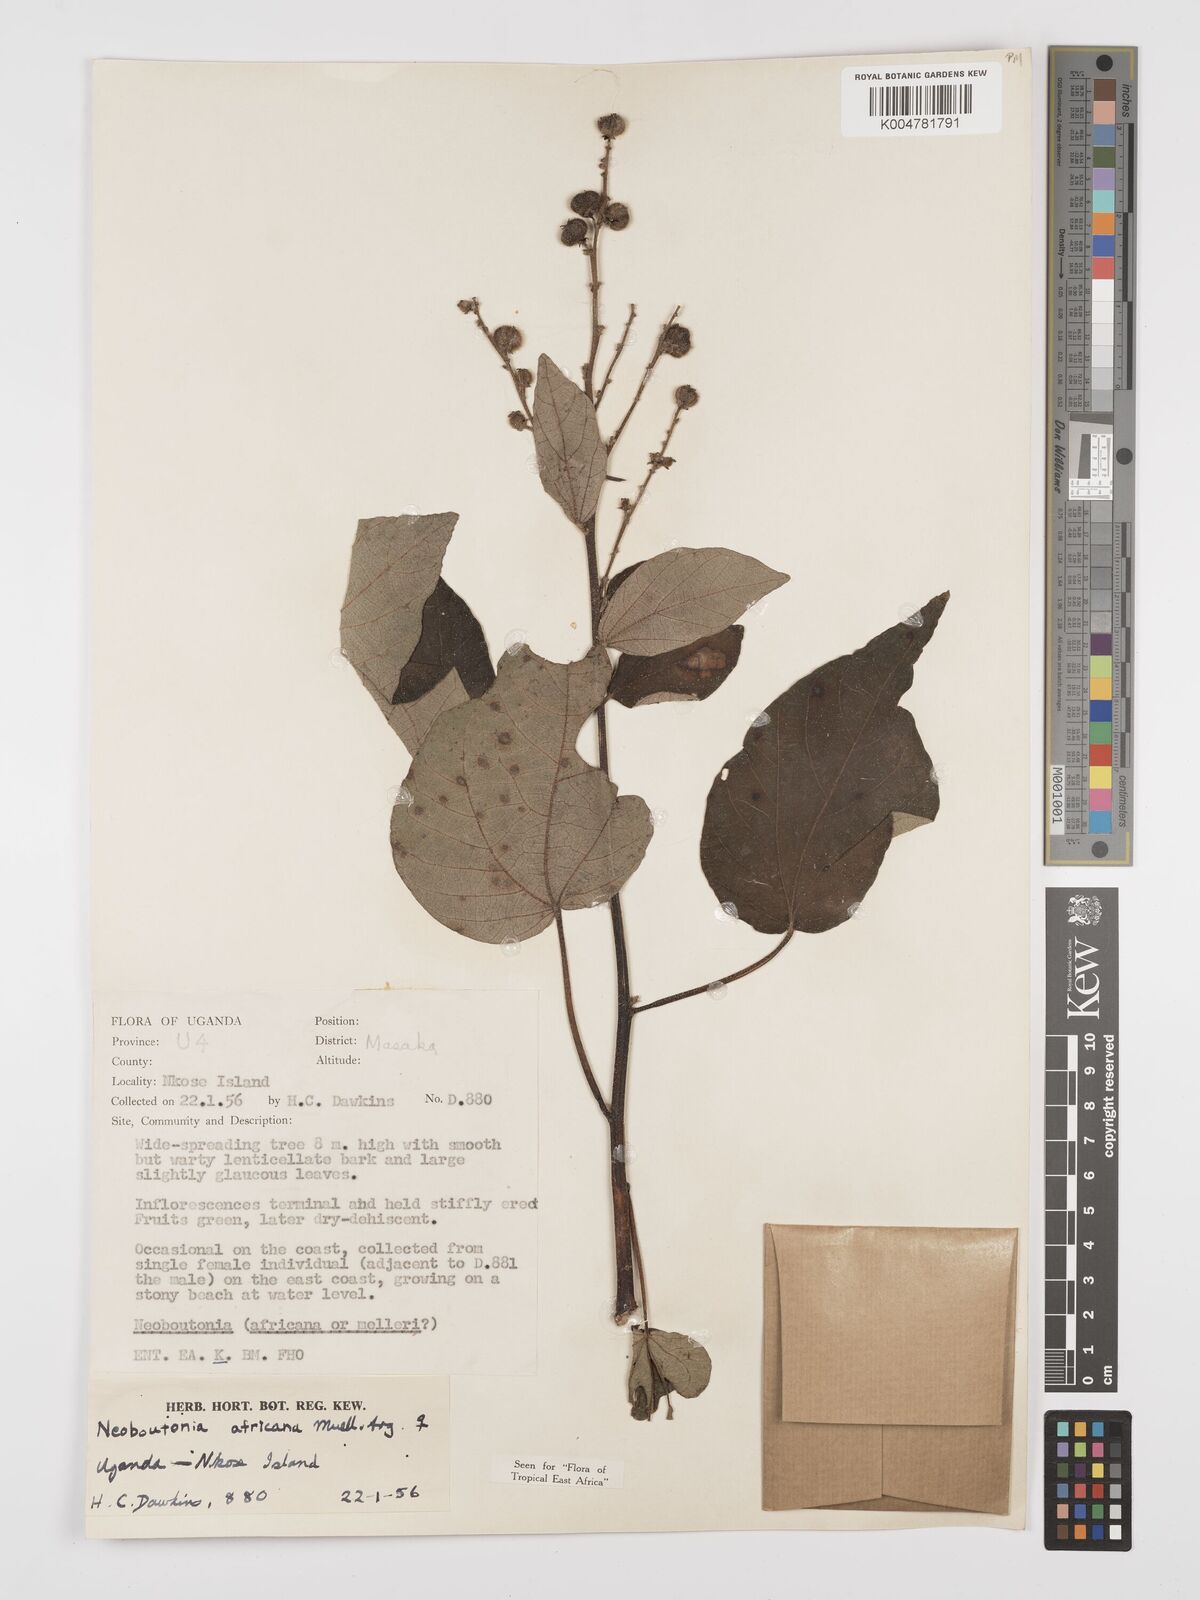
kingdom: Plantae
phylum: Tracheophyta
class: Magnoliopsida
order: Malpighiales
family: Euphorbiaceae
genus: Neoboutonia
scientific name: Neoboutonia melleri
